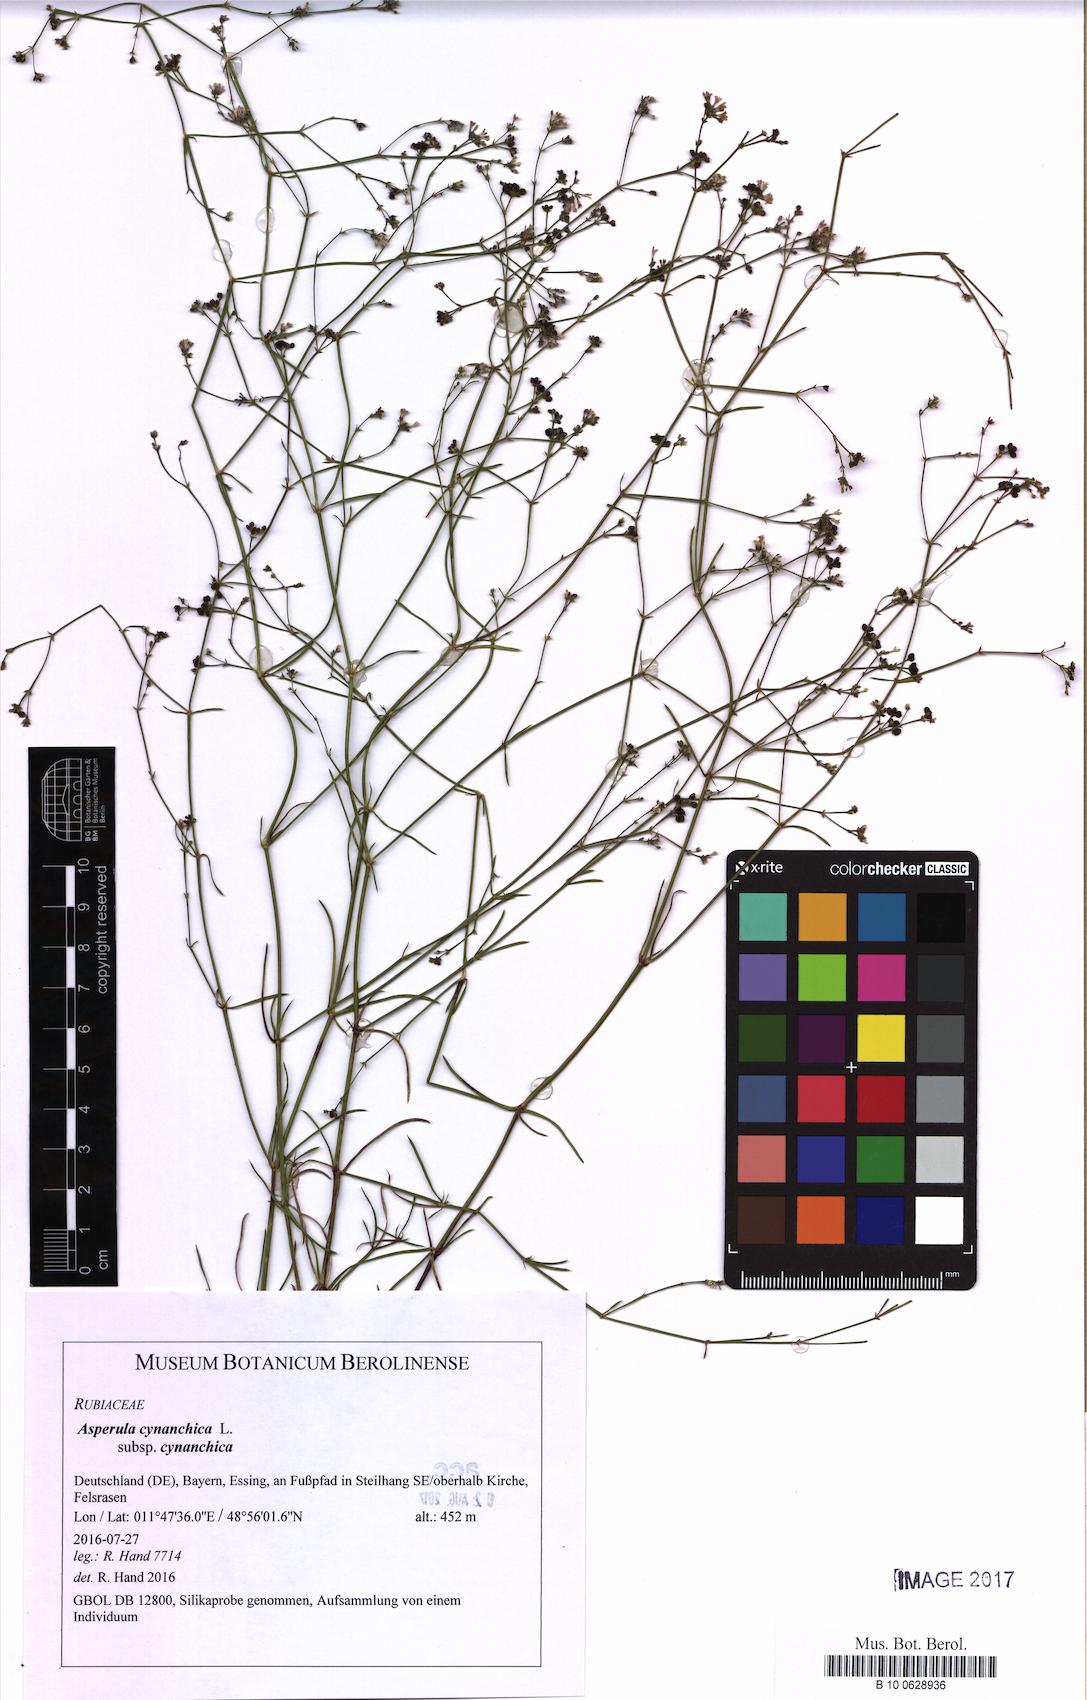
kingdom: Plantae
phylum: Tracheophyta
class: Magnoliopsida
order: Gentianales
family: Rubiaceae
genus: Cynanchica
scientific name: Cynanchica pyrenaica
